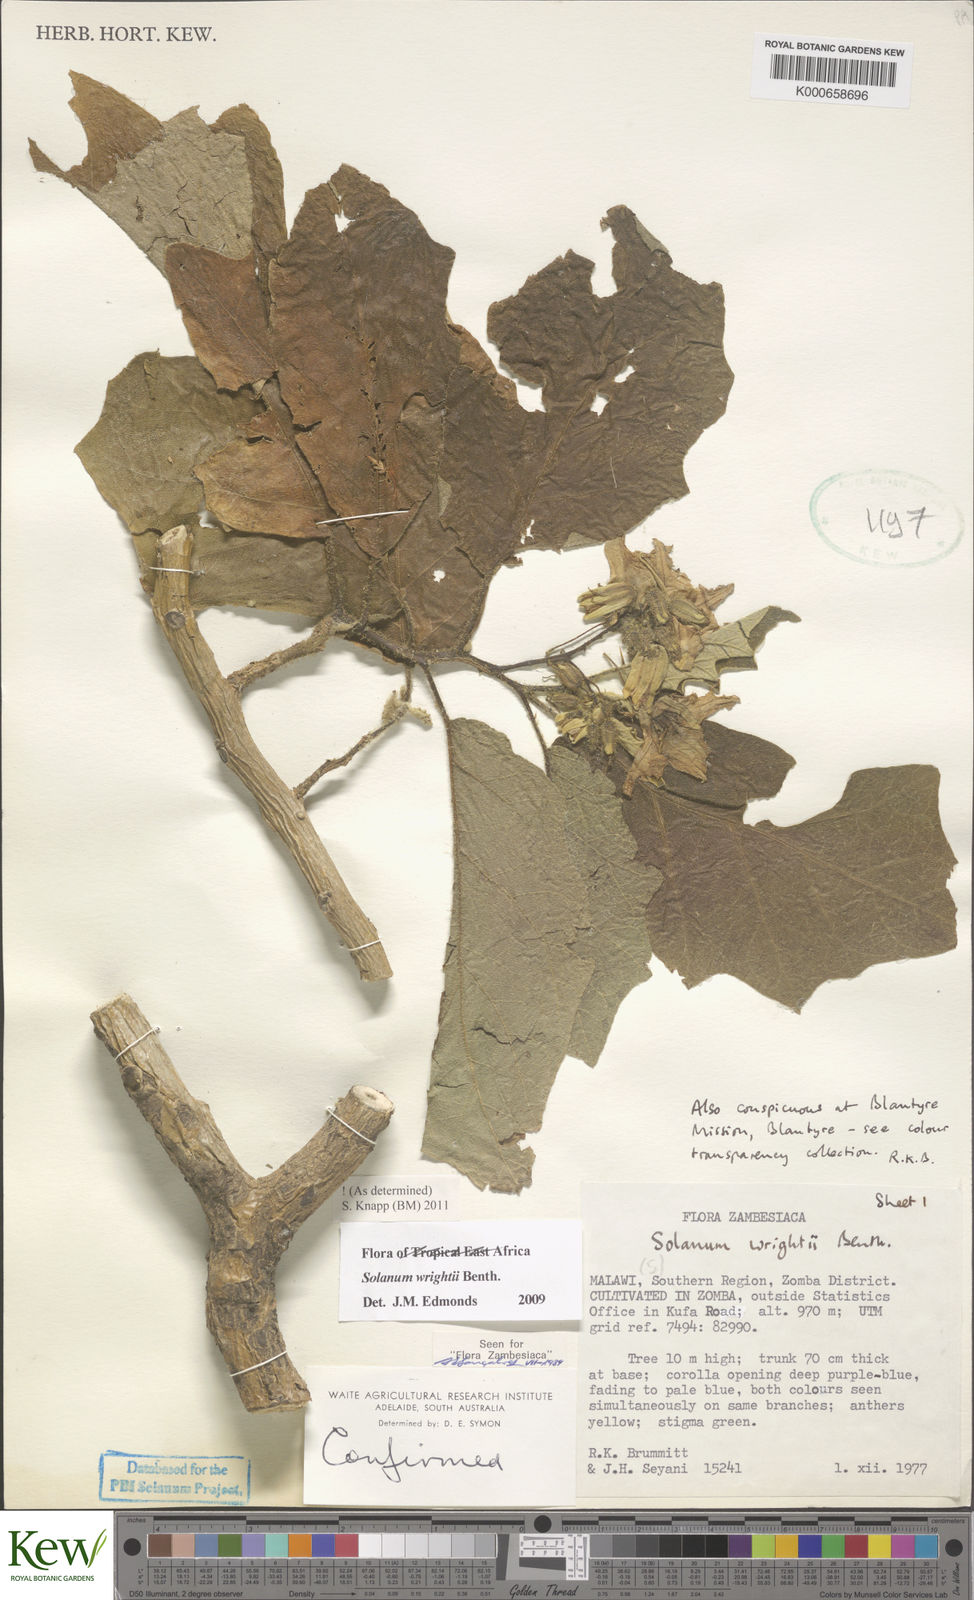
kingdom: Plantae
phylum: Tracheophyta
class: Magnoliopsida
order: Solanales
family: Solanaceae
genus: Solanum
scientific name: Solanum wrightii
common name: Brazilian potato-tree
